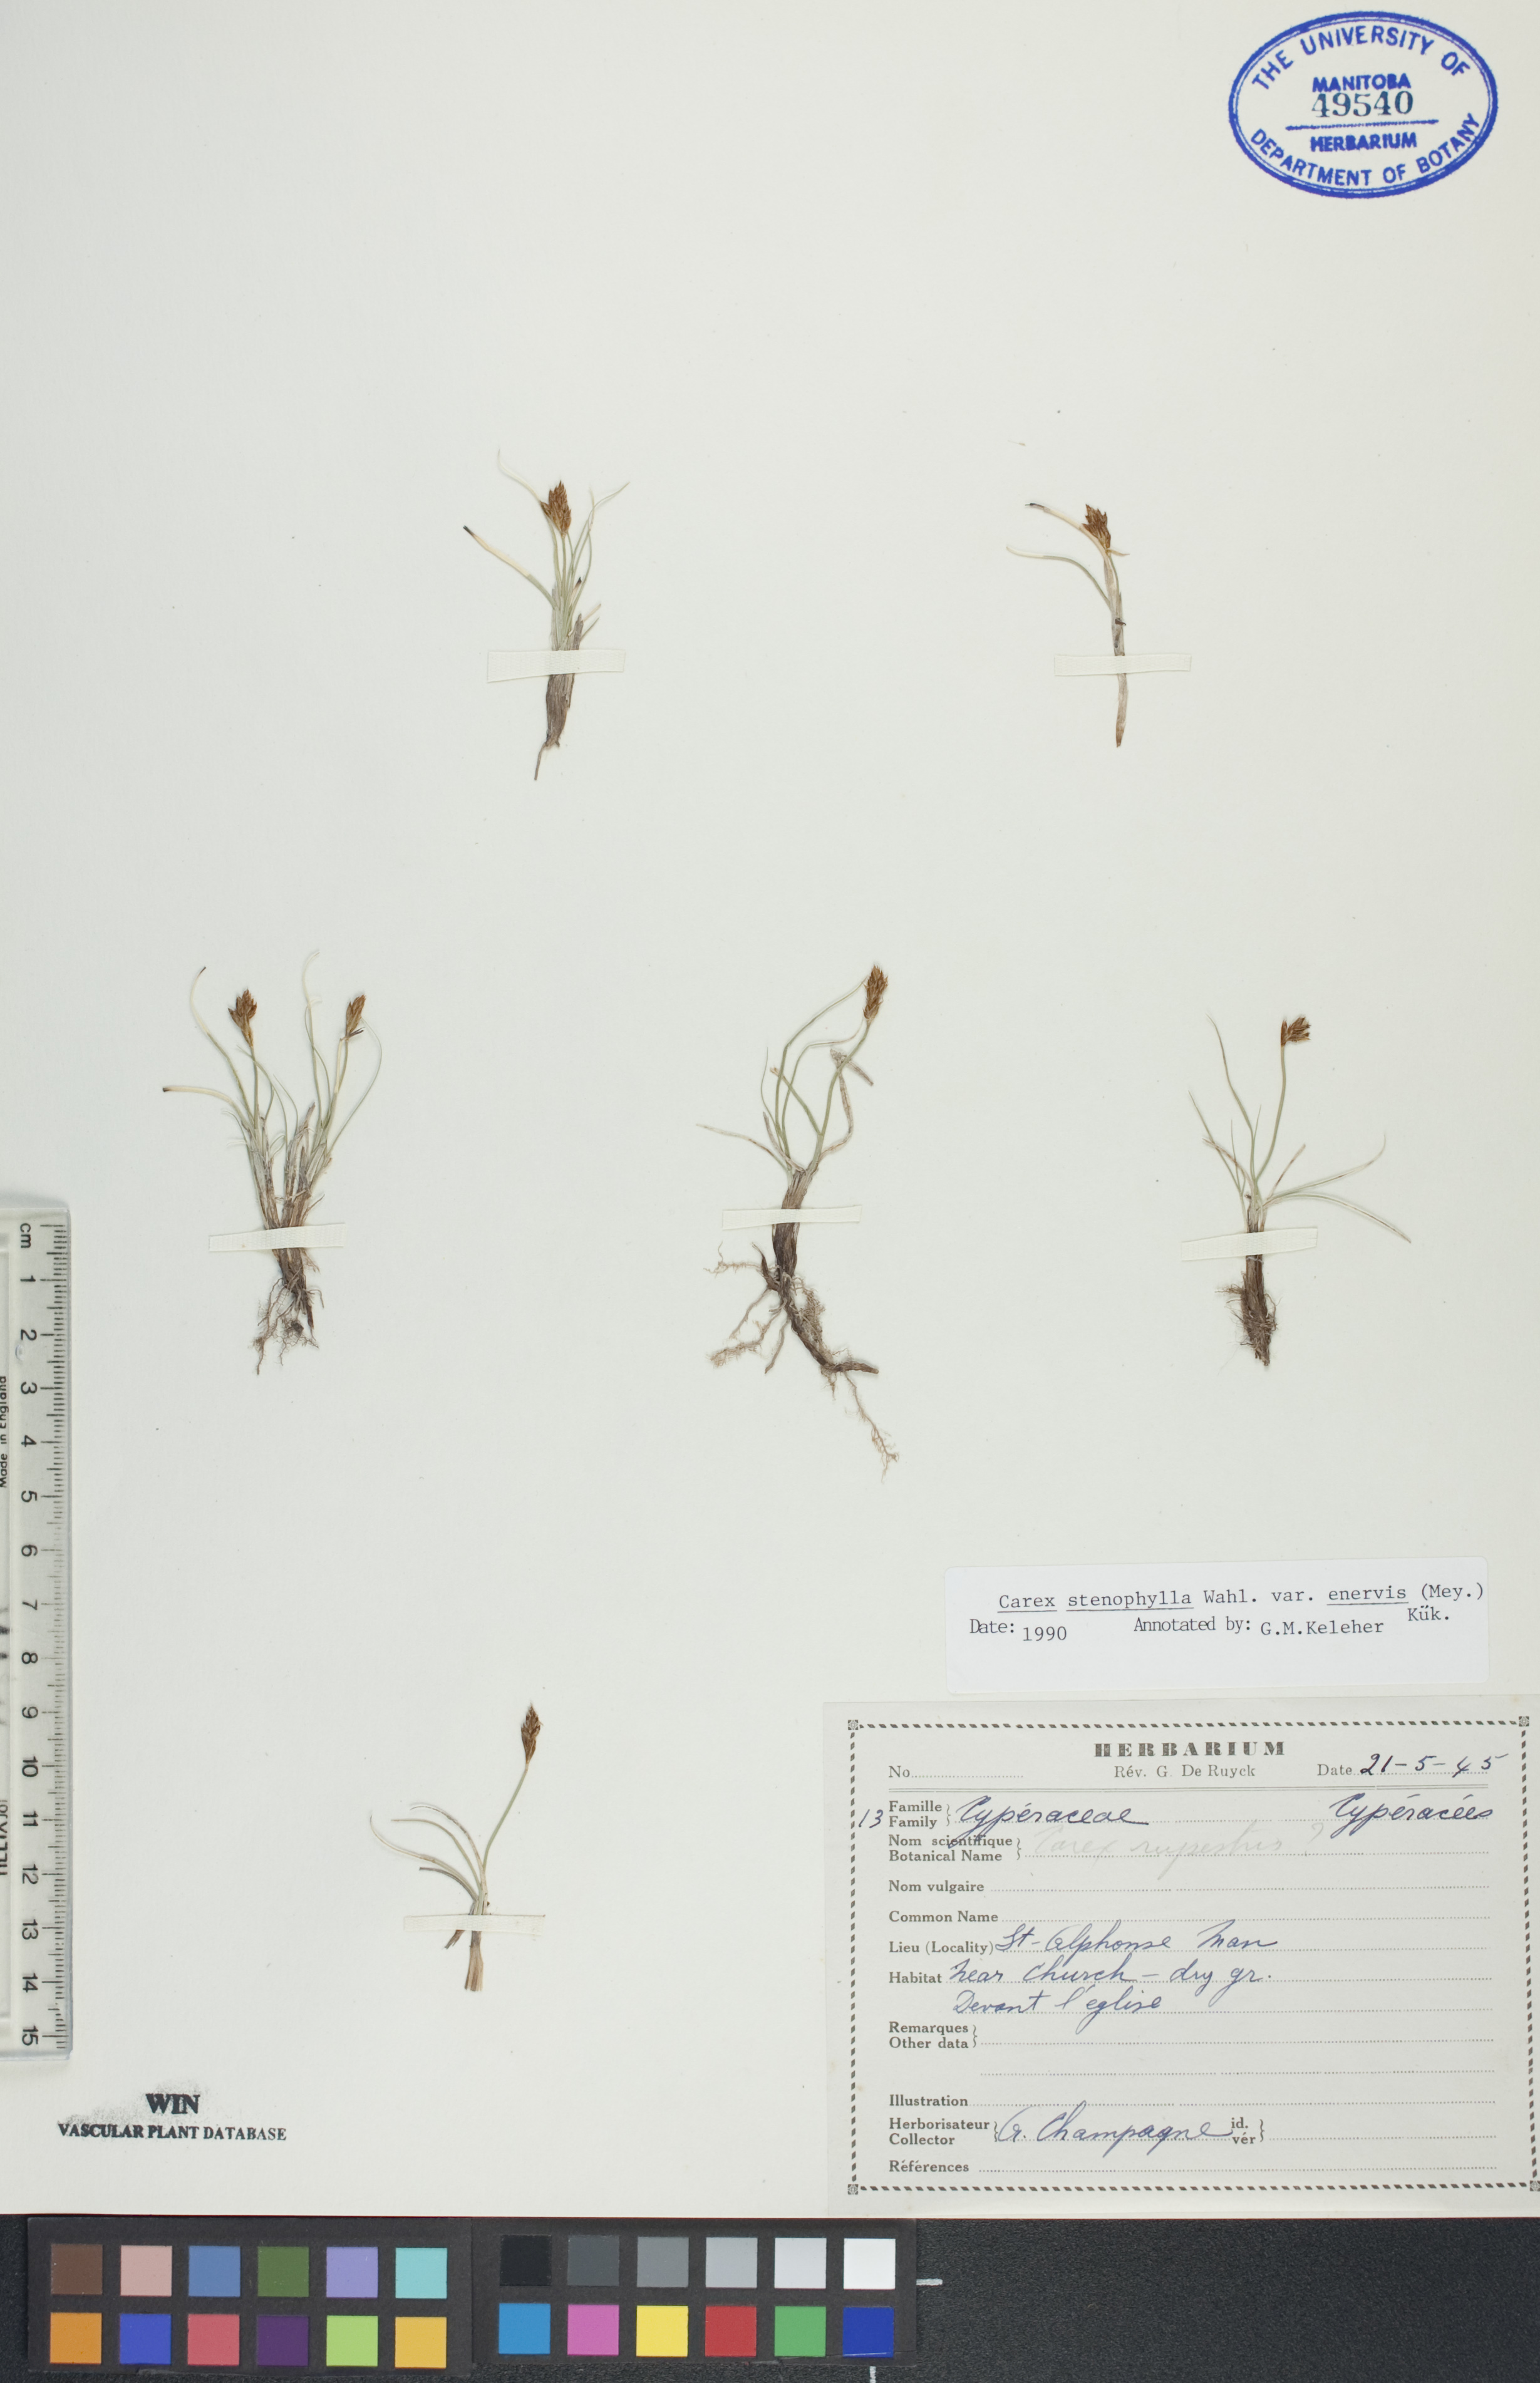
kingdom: Plantae
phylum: Tracheophyta
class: Liliopsida
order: Poales
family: Cyperaceae
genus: Carex
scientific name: Carex enervis
